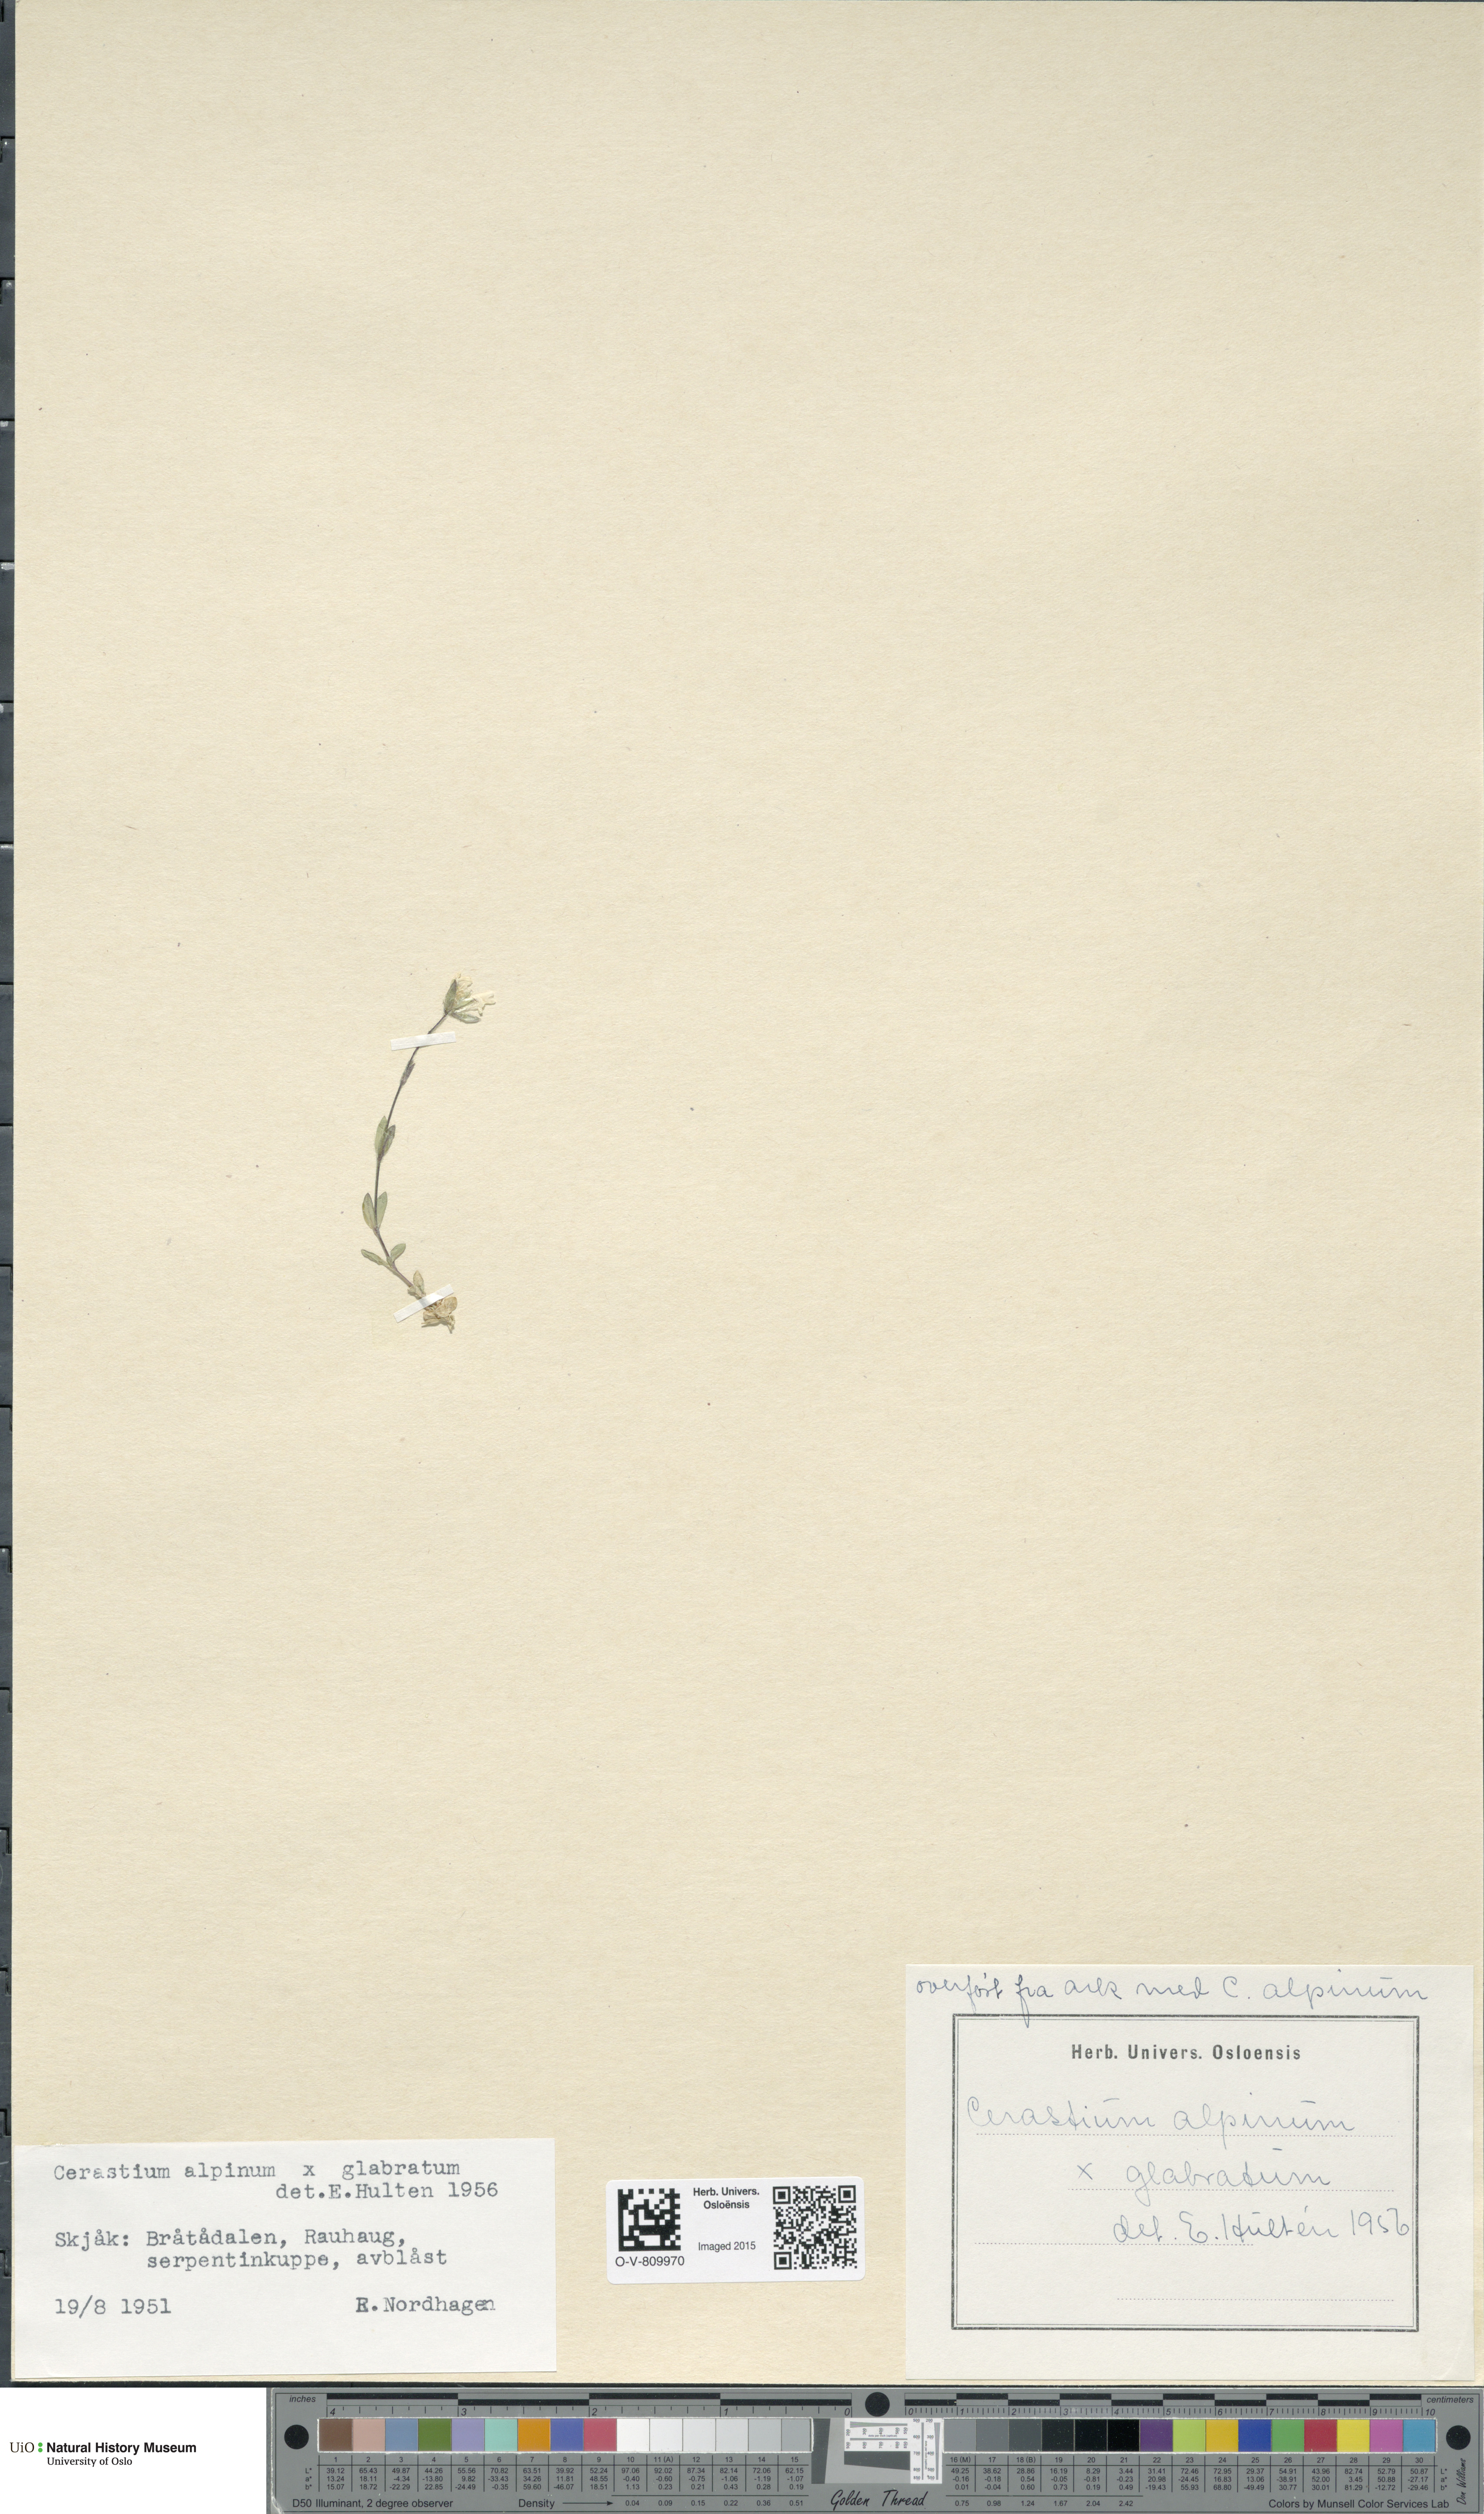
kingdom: Plantae
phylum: Tracheophyta
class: Magnoliopsida
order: Caryophyllales
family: Caryophyllaceae
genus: Cerastium
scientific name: Cerastium
